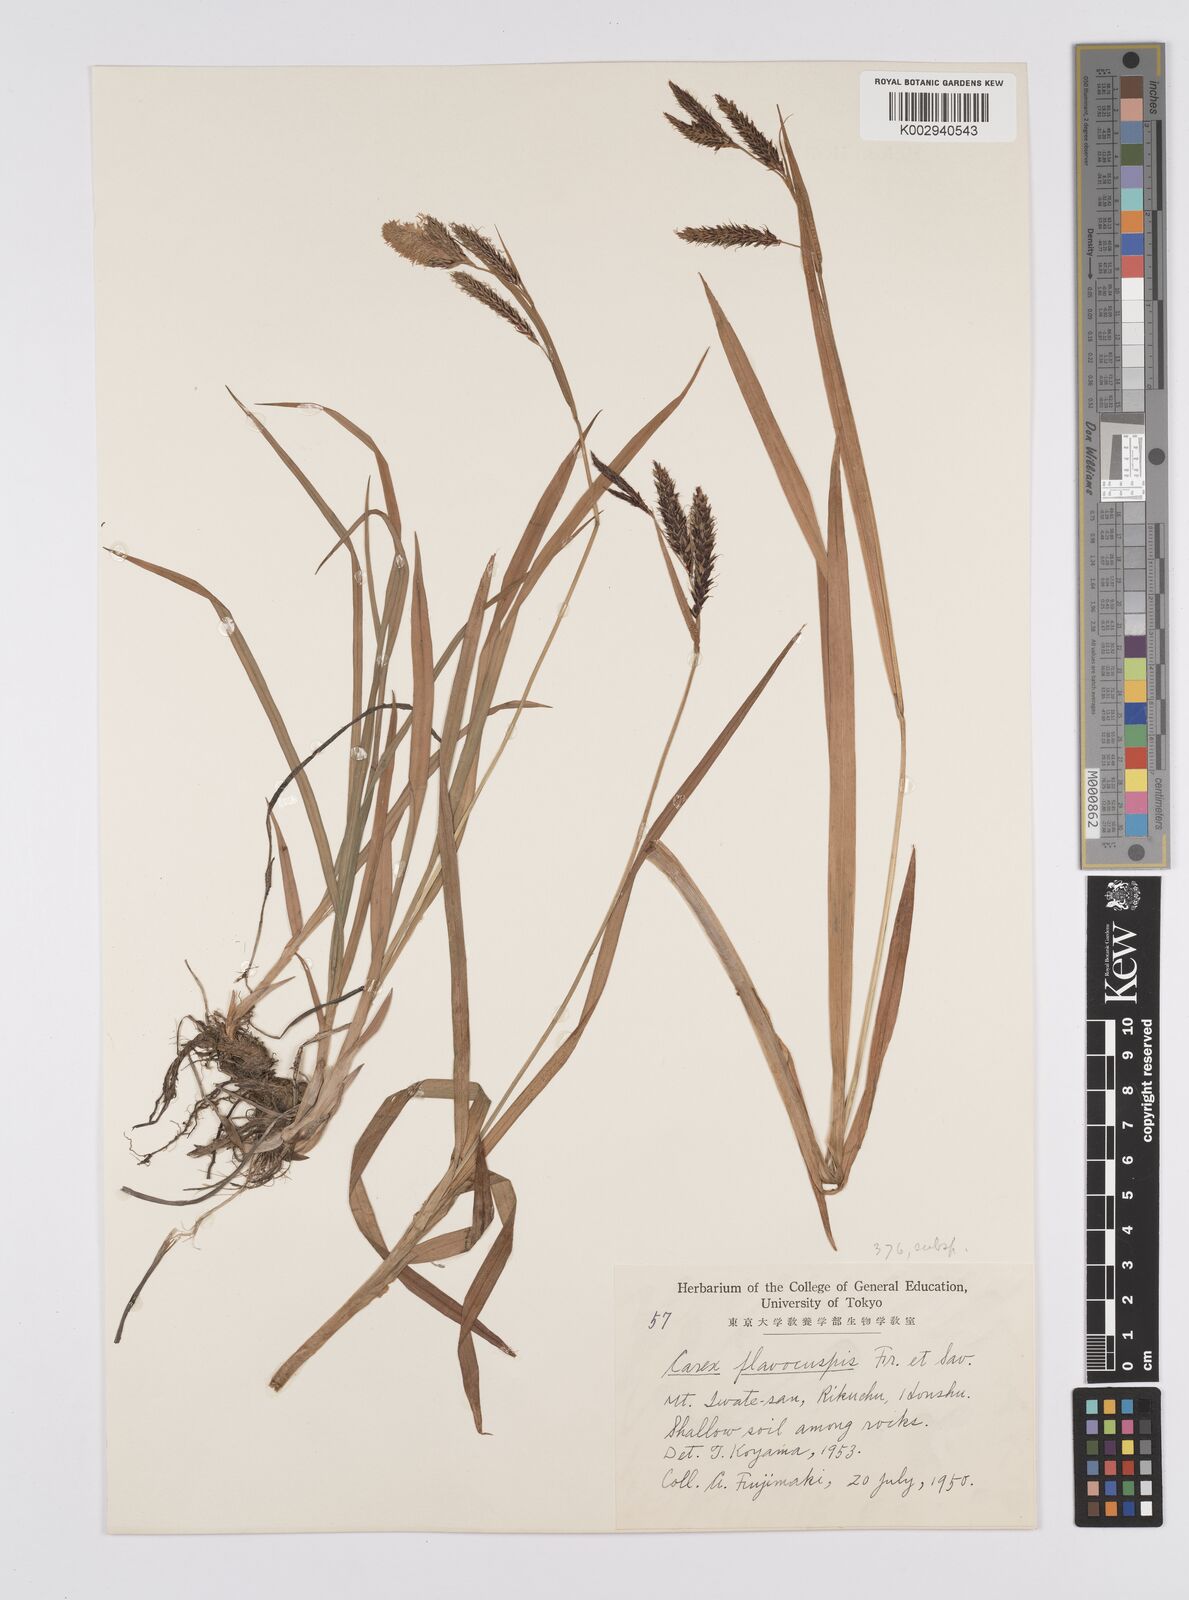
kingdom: Plantae
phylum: Tracheophyta
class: Liliopsida
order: Poales
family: Cyperaceae
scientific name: Cyperaceae
